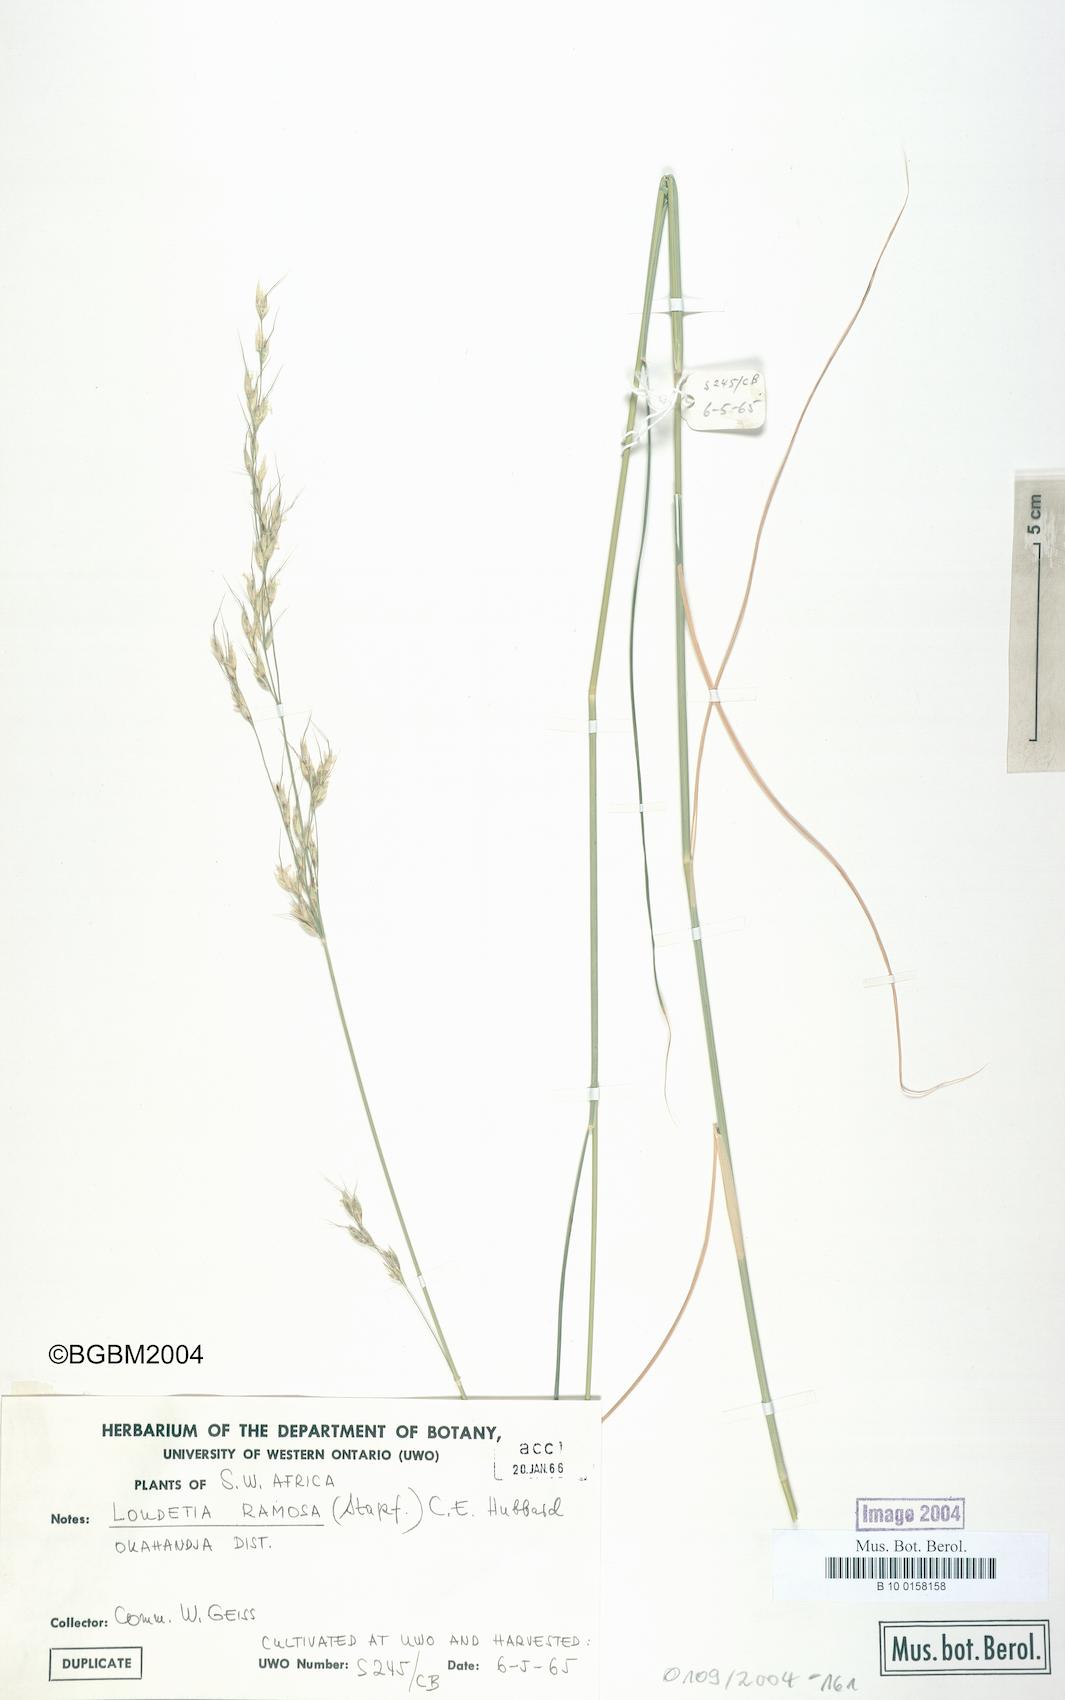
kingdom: Plantae
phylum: Tracheophyta
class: Liliopsida
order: Poales
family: Poaceae
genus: Danthoniopsis
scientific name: Danthoniopsis ramosa
